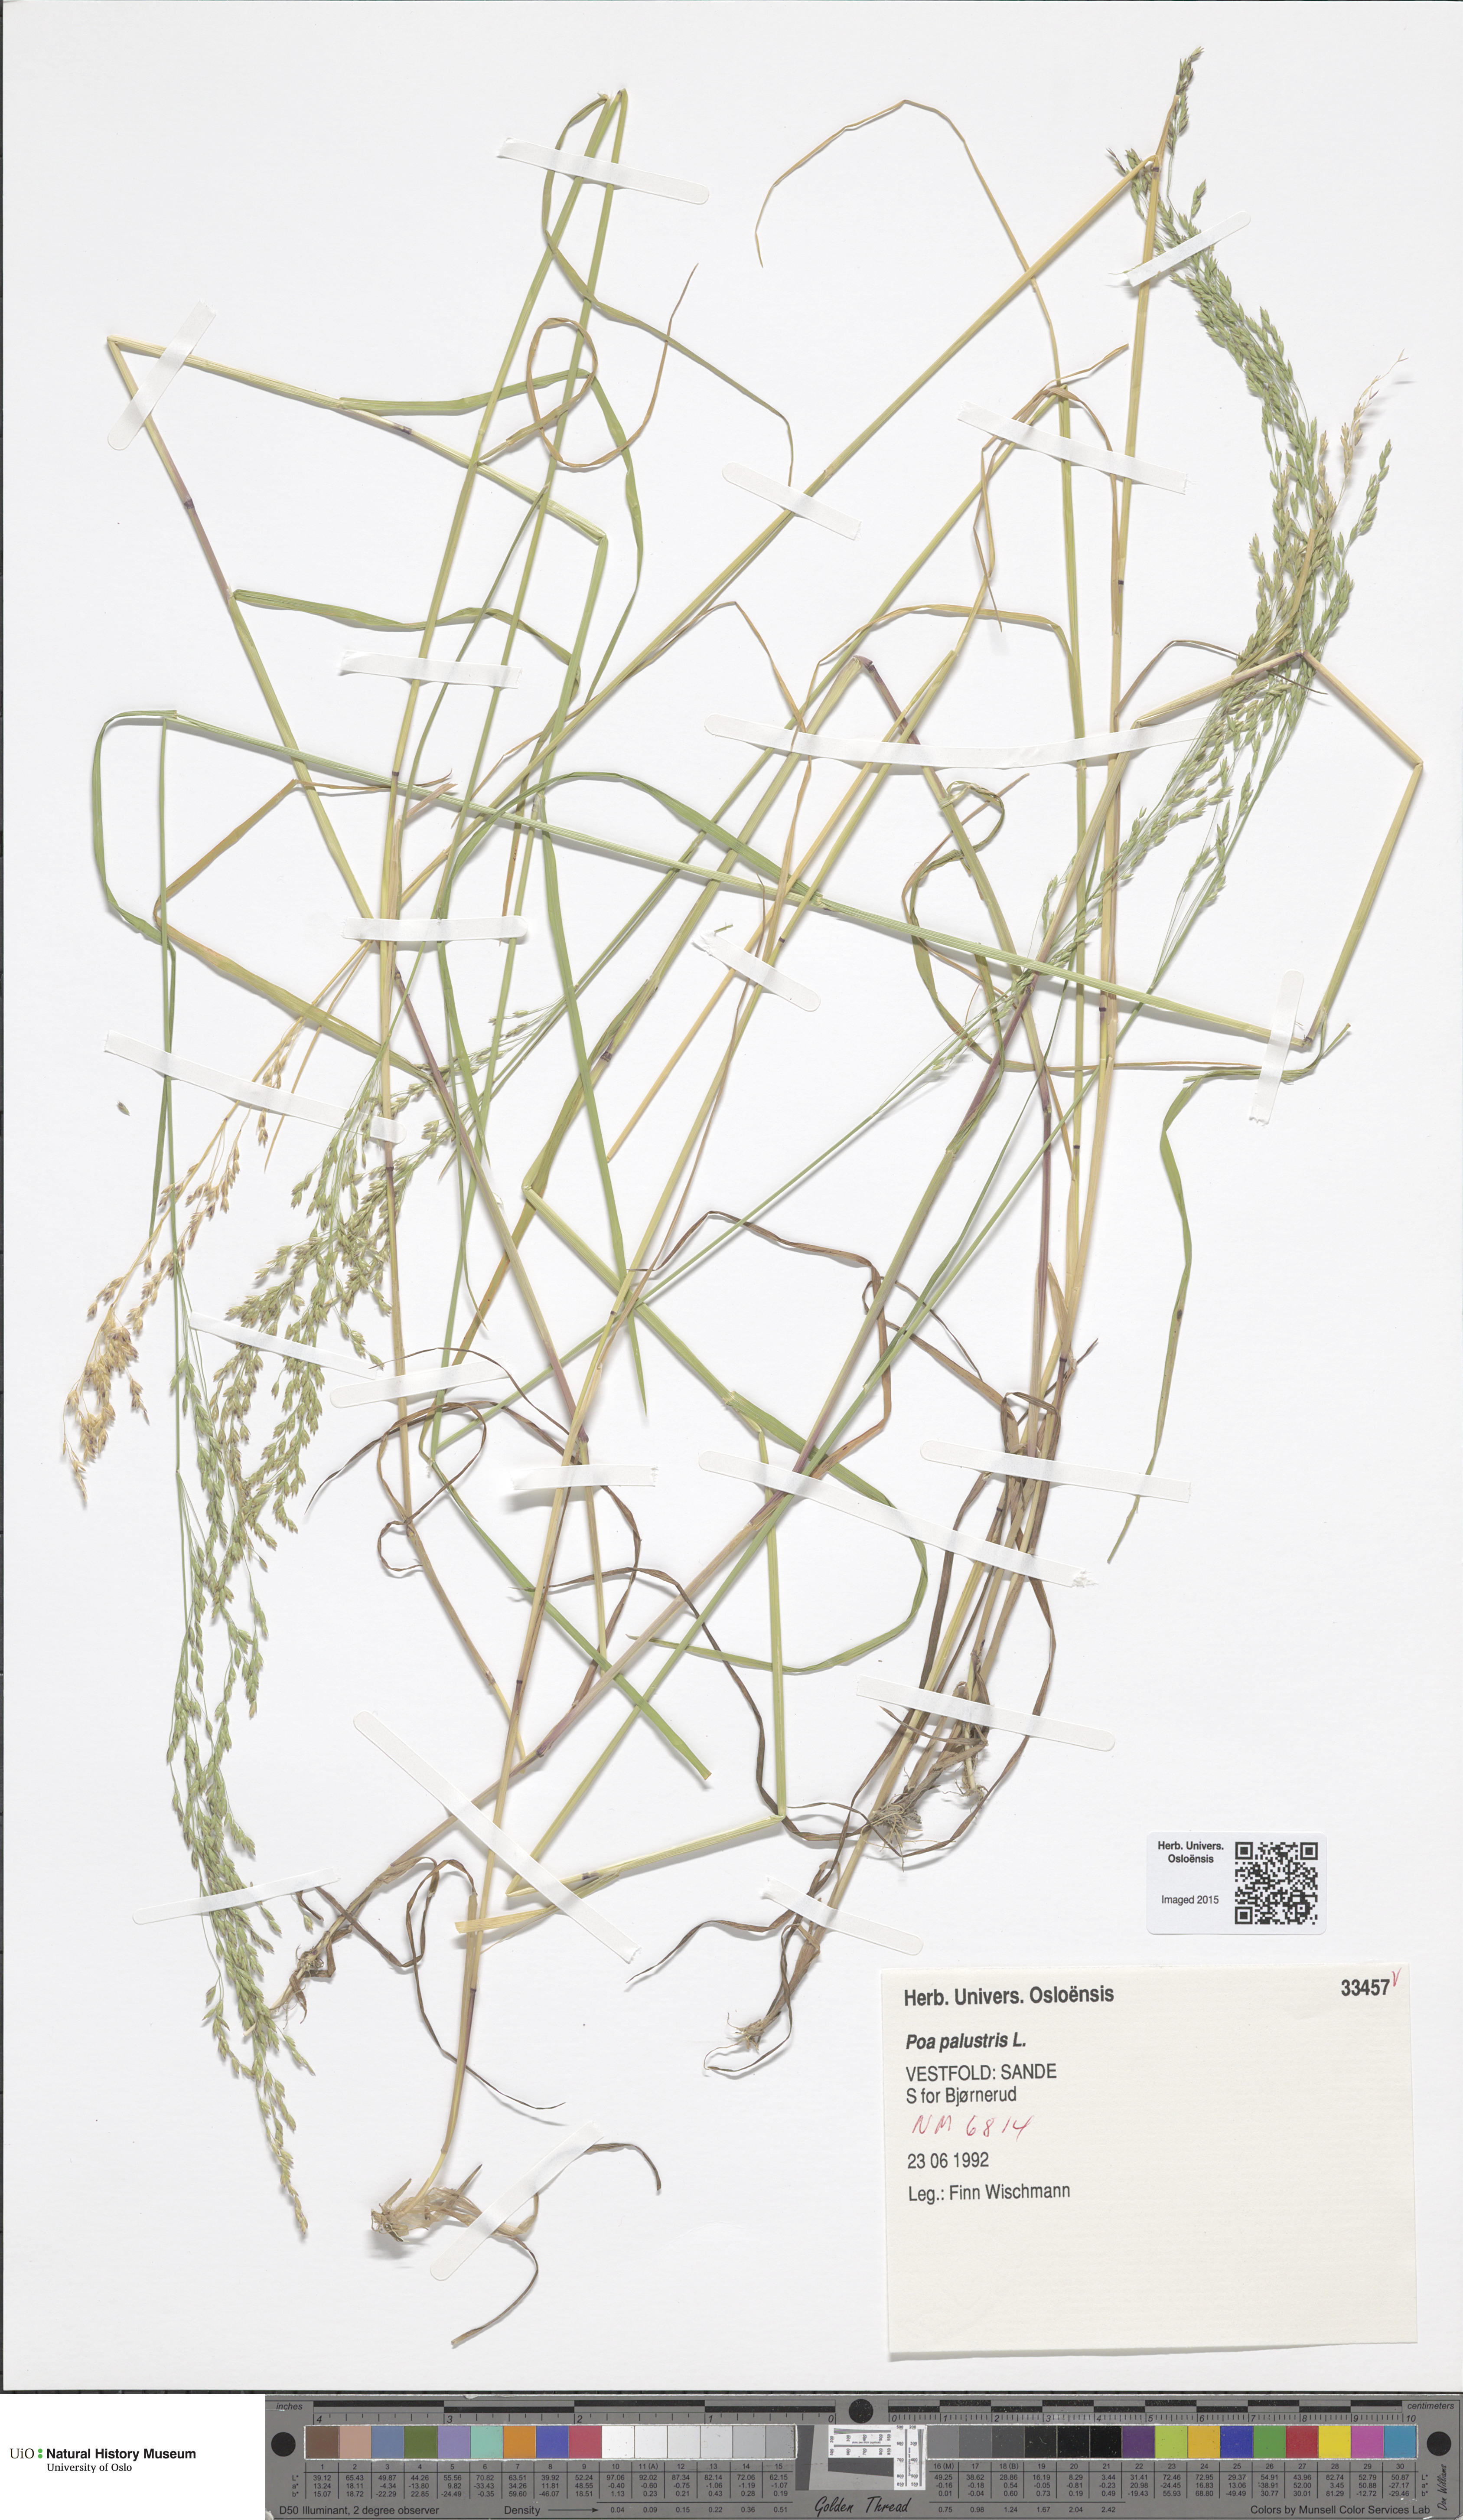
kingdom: Plantae
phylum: Tracheophyta
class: Liliopsida
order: Poales
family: Poaceae
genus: Poa
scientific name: Poa palustris
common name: Swamp meadow-grass
